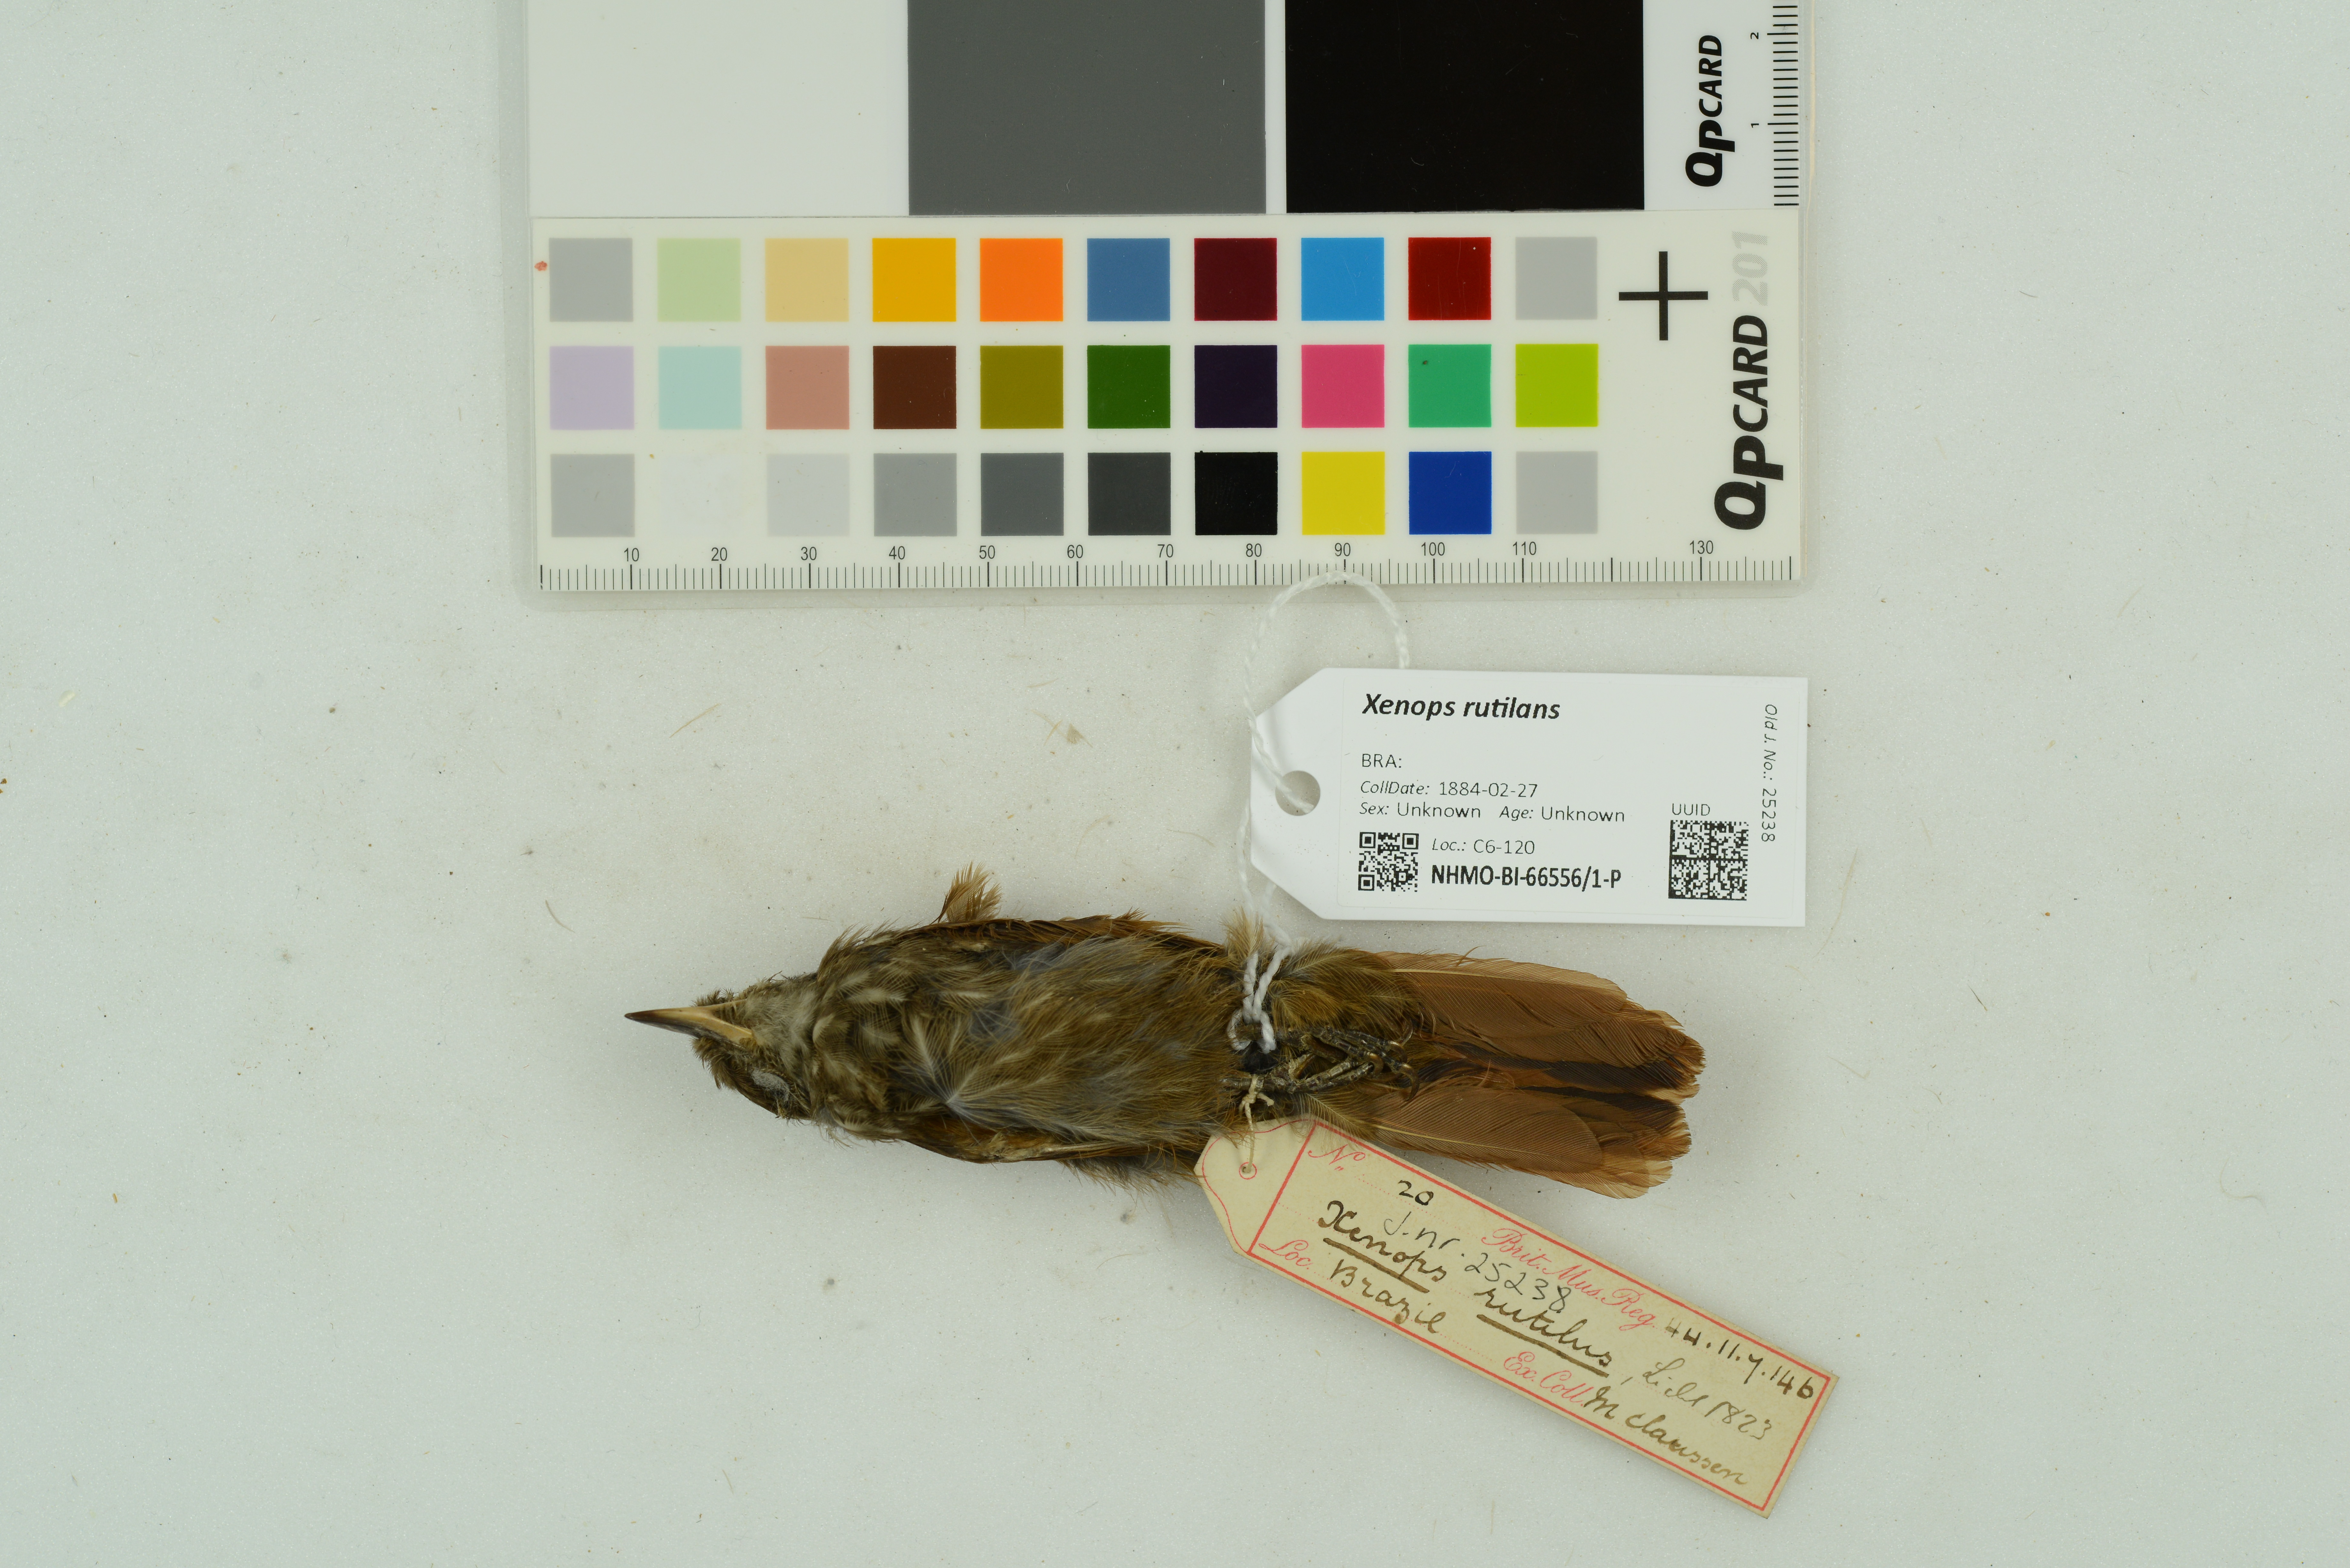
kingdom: Animalia
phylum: Chordata
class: Aves
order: Passeriformes
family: Furnariidae
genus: Xenops
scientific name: Xenops rutilans
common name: Streaked xenops
